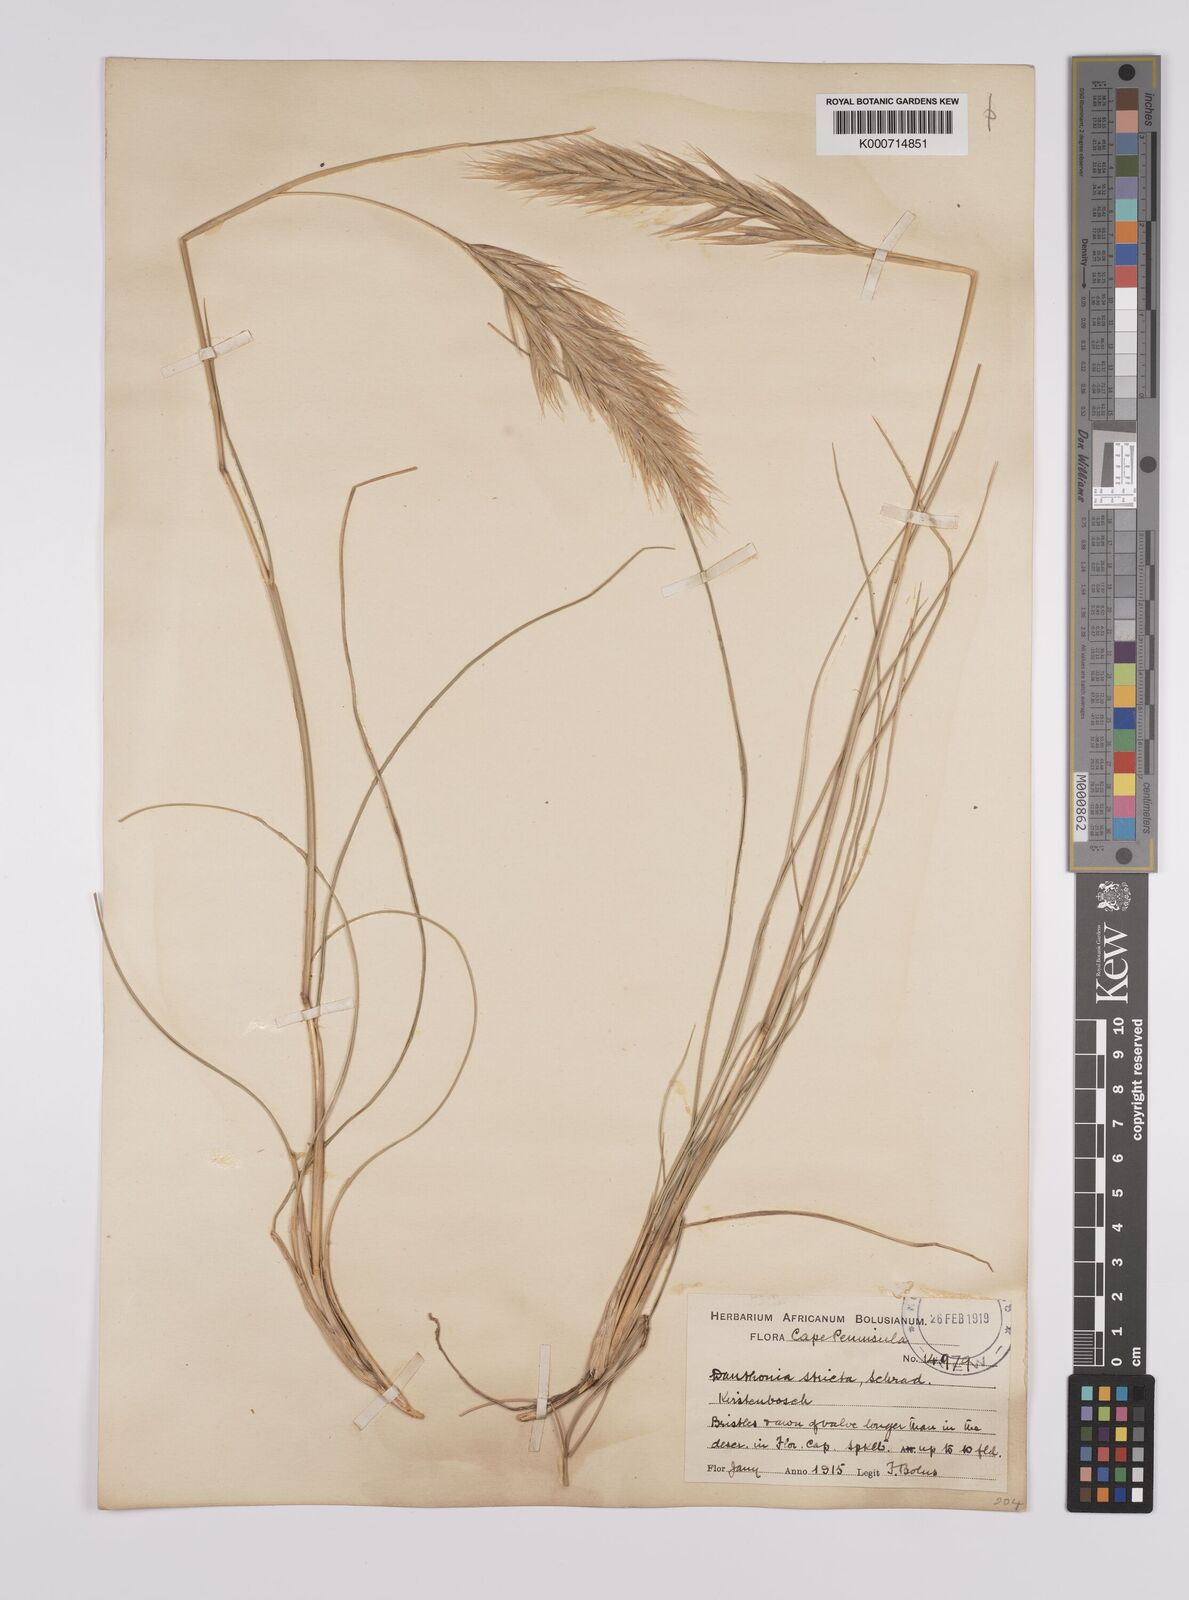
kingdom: Plantae
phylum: Tracheophyta
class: Liliopsida
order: Poales
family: Poaceae
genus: Rytidosperma
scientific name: Rytidosperma
